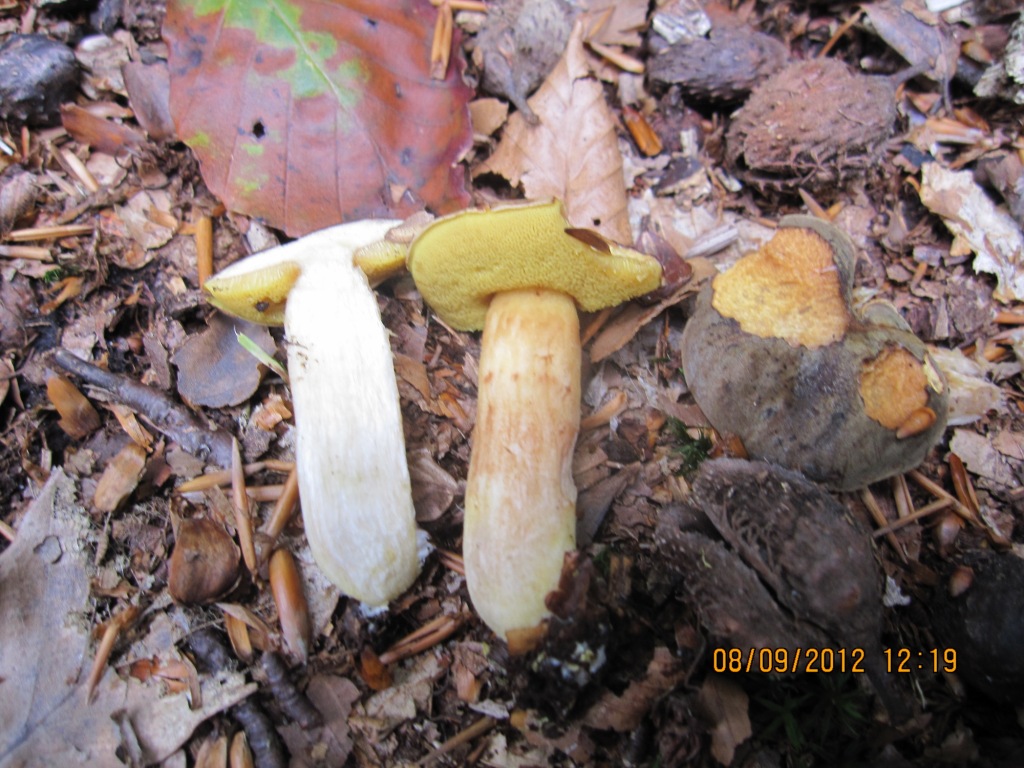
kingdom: Fungi
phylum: Basidiomycota
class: Agaricomycetes
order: Boletales
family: Boletaceae
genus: Xerocomus
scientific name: Xerocomus ferrugineus
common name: vaskeskinds-rørhat
